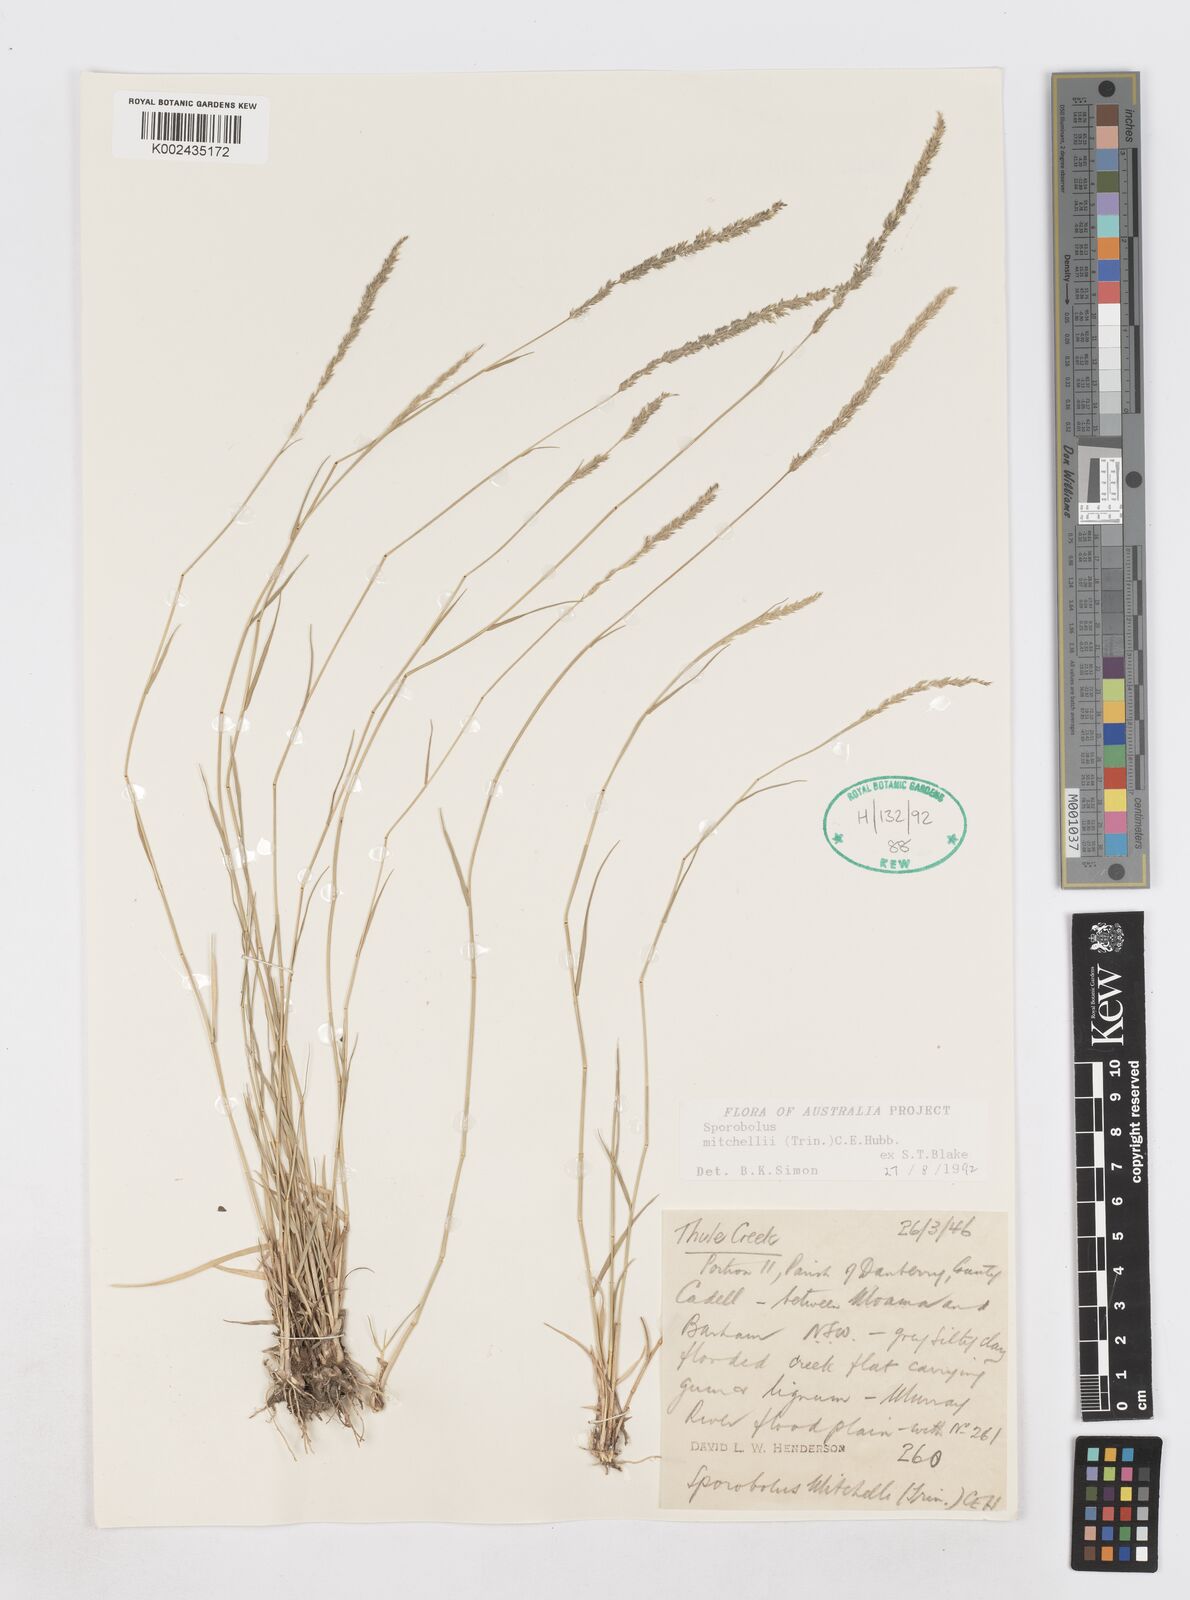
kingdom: Plantae
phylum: Tracheophyta
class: Liliopsida
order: Poales
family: Poaceae
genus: Sporobolus
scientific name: Sporobolus mitchellii
